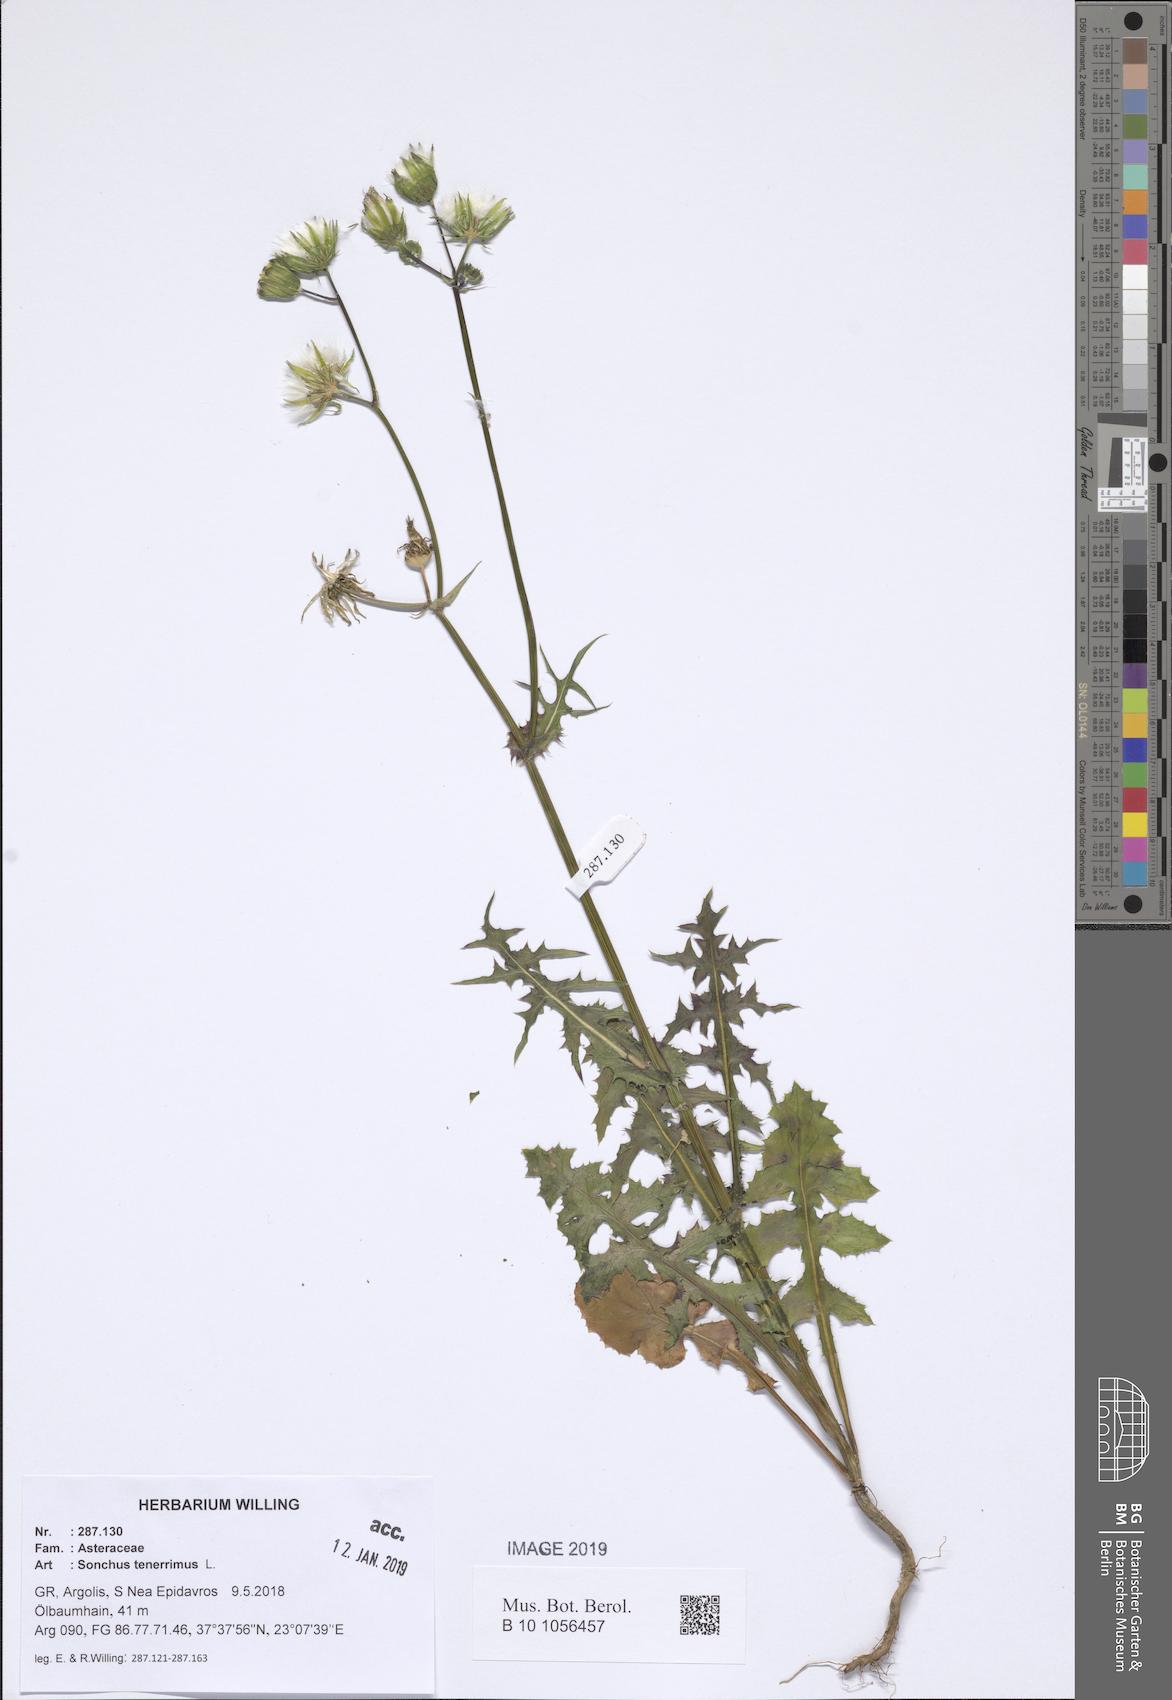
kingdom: Plantae
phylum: Tracheophyta
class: Magnoliopsida
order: Asterales
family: Asteraceae
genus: Sonchus
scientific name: Sonchus tenerrimus
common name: Clammy sowthistle
